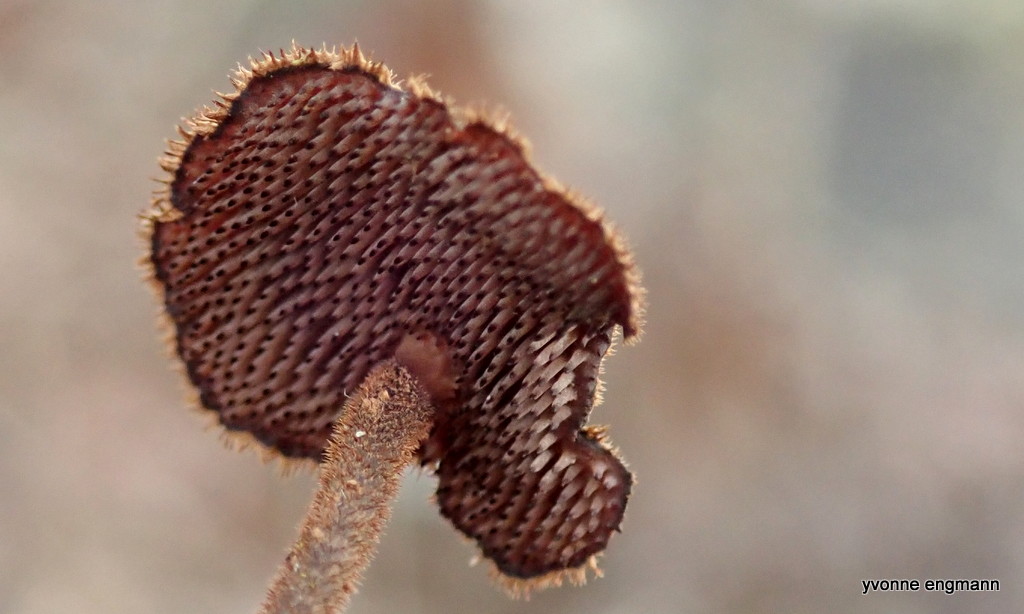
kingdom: Fungi
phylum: Basidiomycota
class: Agaricomycetes
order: Russulales
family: Auriscalpiaceae
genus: Auriscalpium
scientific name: Auriscalpium vulgare
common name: koglepigsvamp
